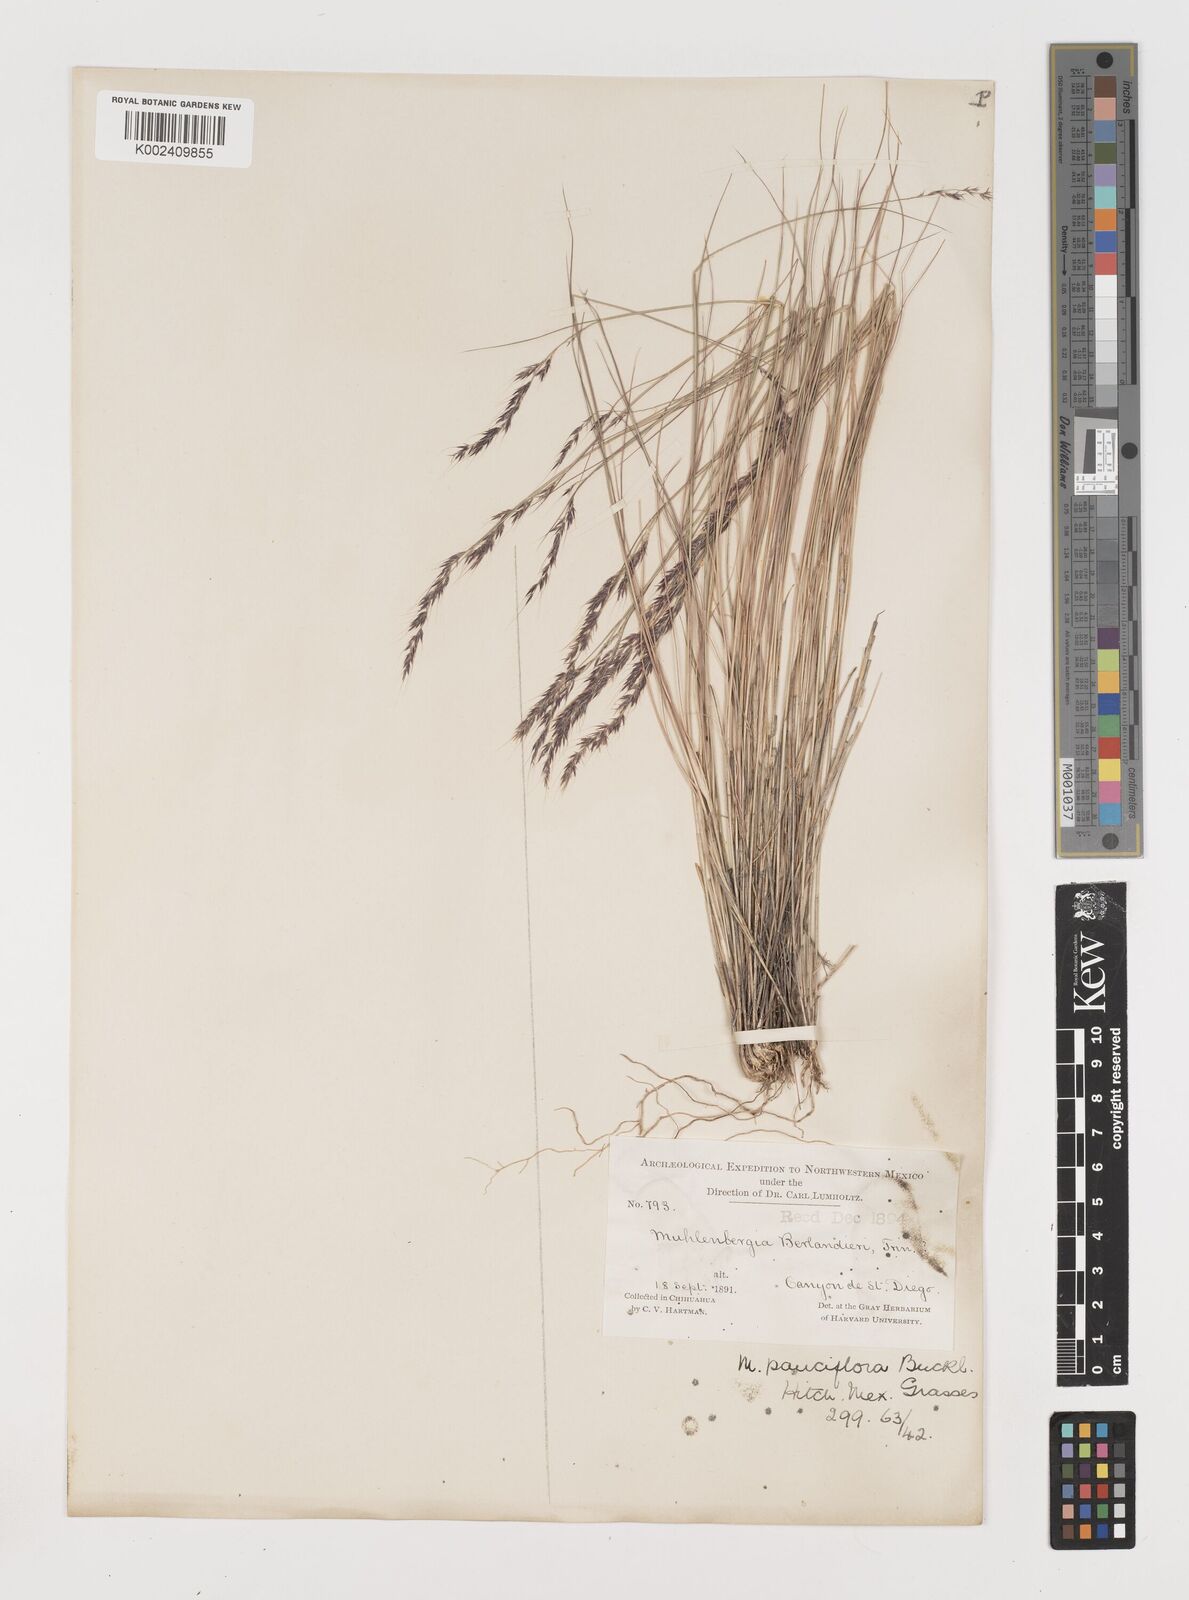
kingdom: Plantae
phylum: Tracheophyta
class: Liliopsida
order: Poales
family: Poaceae
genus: Muhlenbergia
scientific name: Muhlenbergia pauciflora
